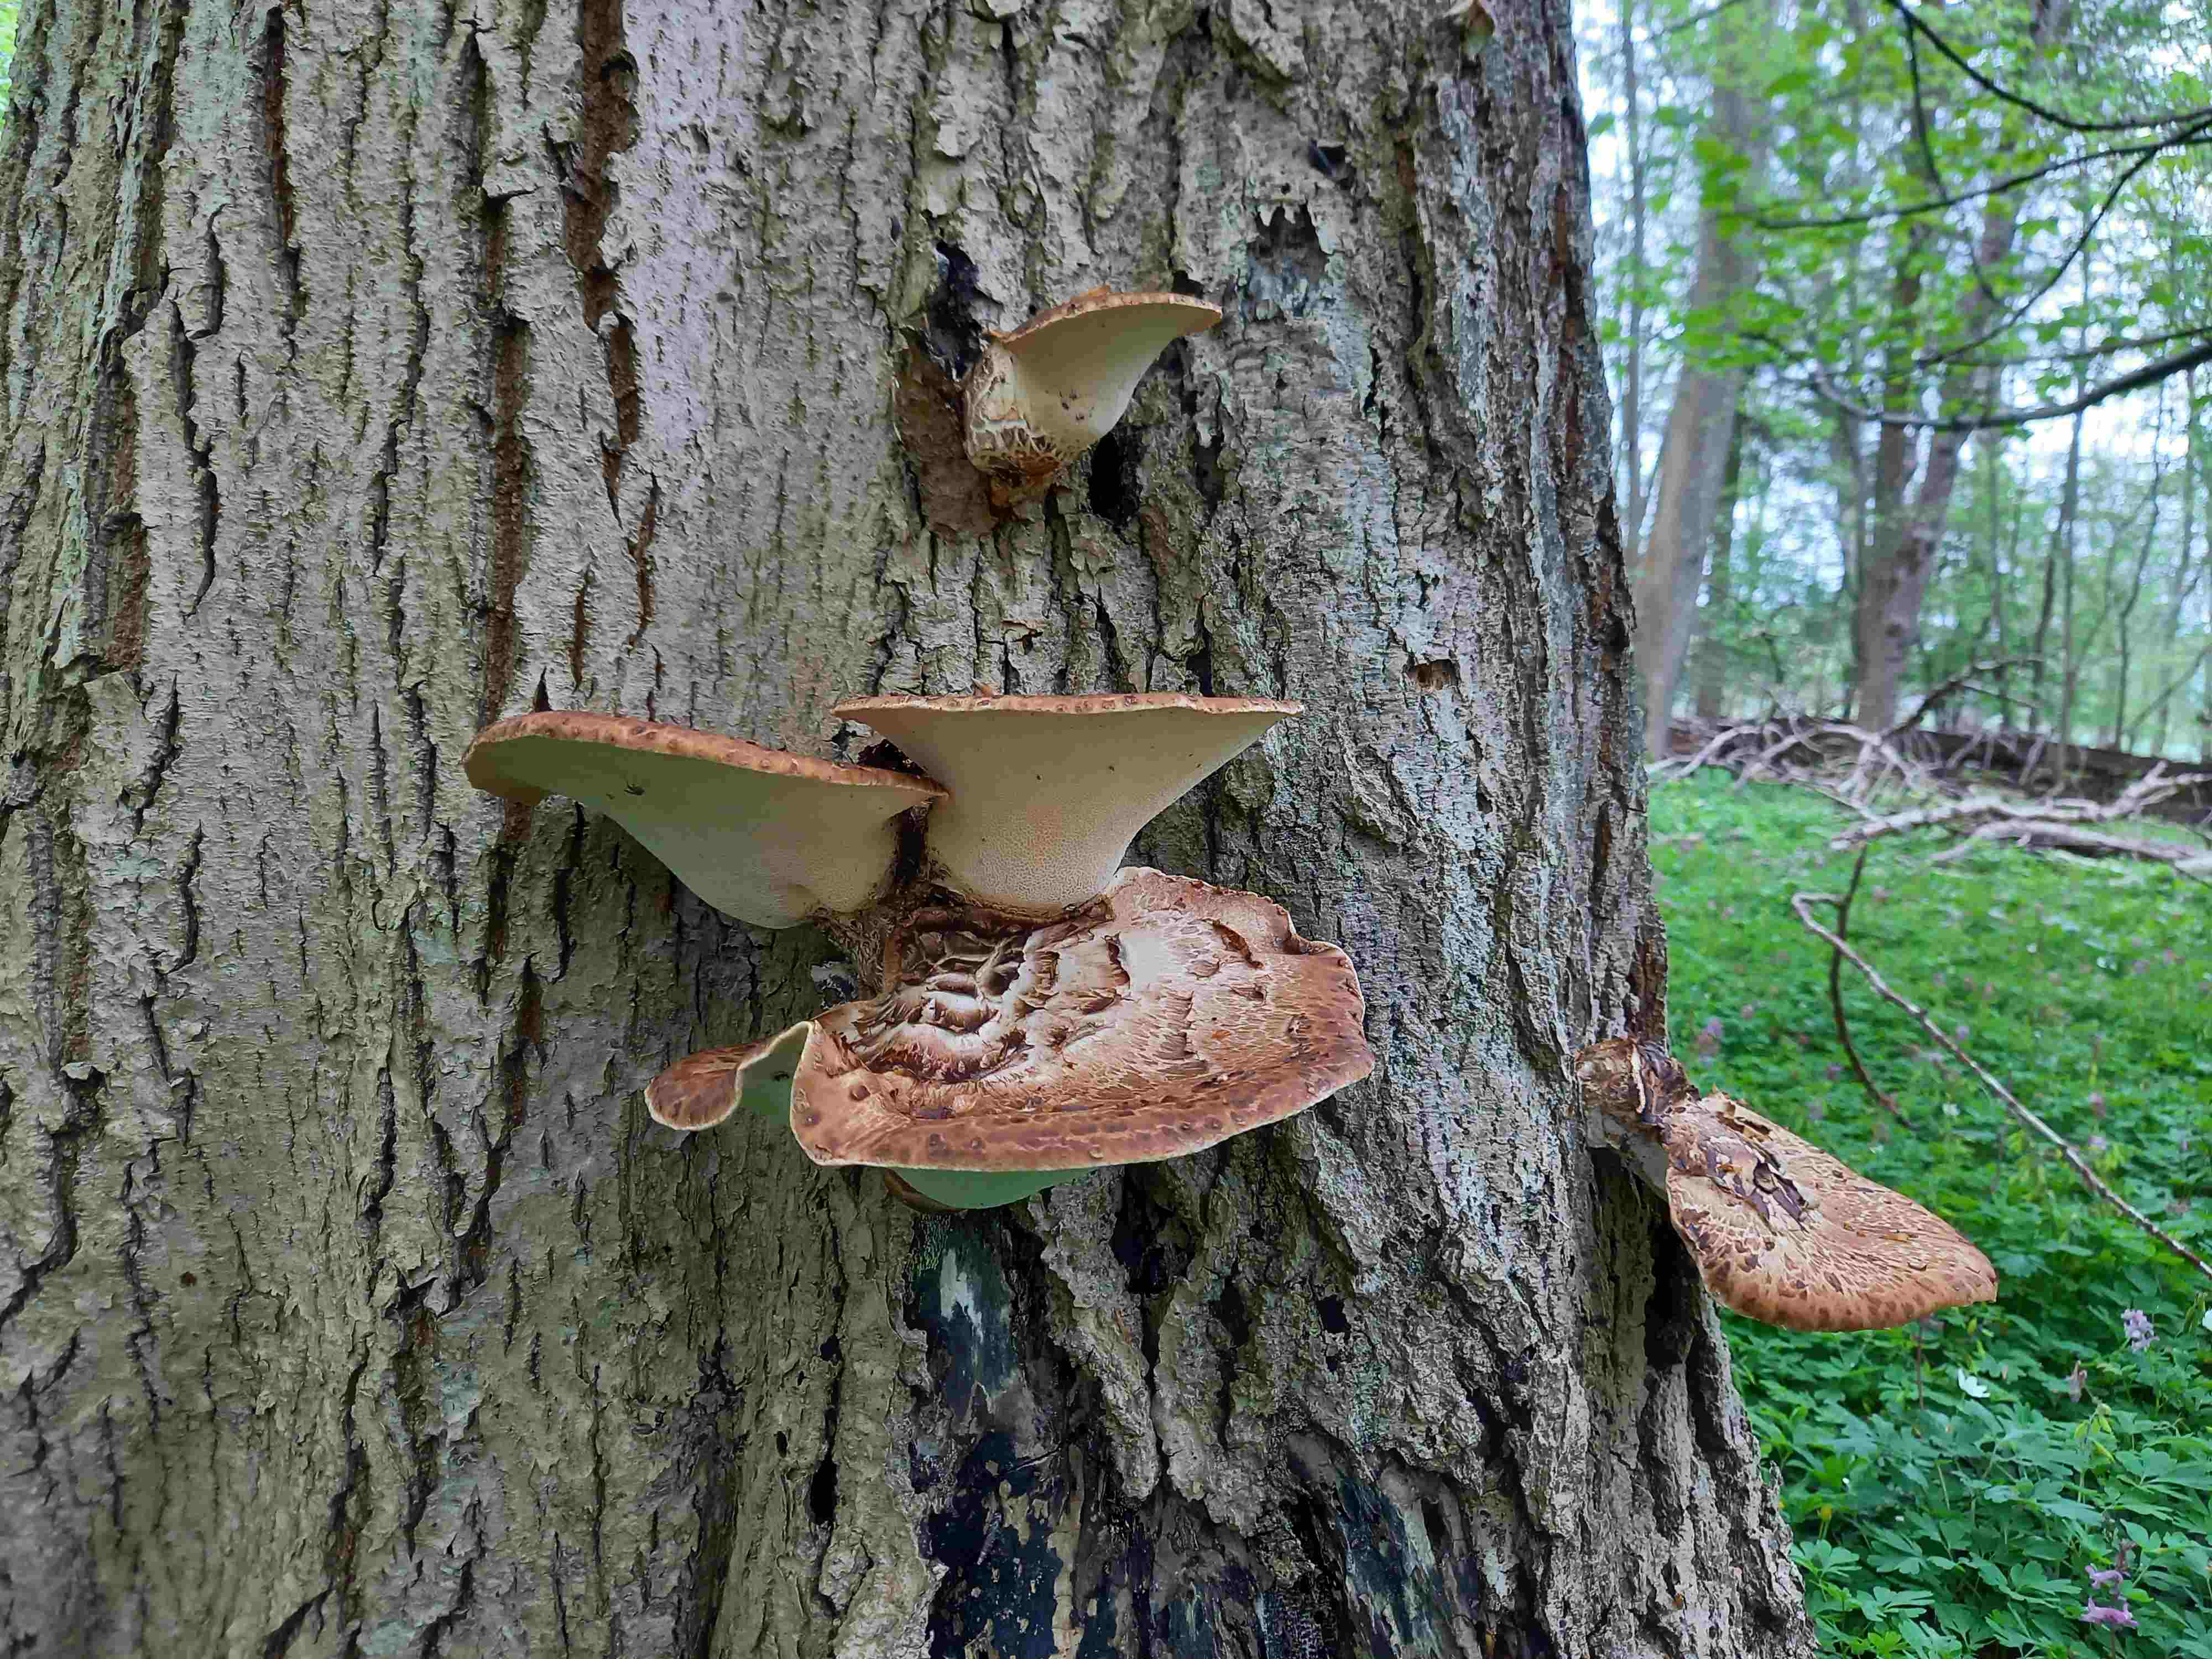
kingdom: Fungi
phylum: Basidiomycota
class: Agaricomycetes
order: Polyporales
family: Polyporaceae
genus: Cerioporus
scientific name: Cerioporus squamosus
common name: skællet stilkporesvamp
